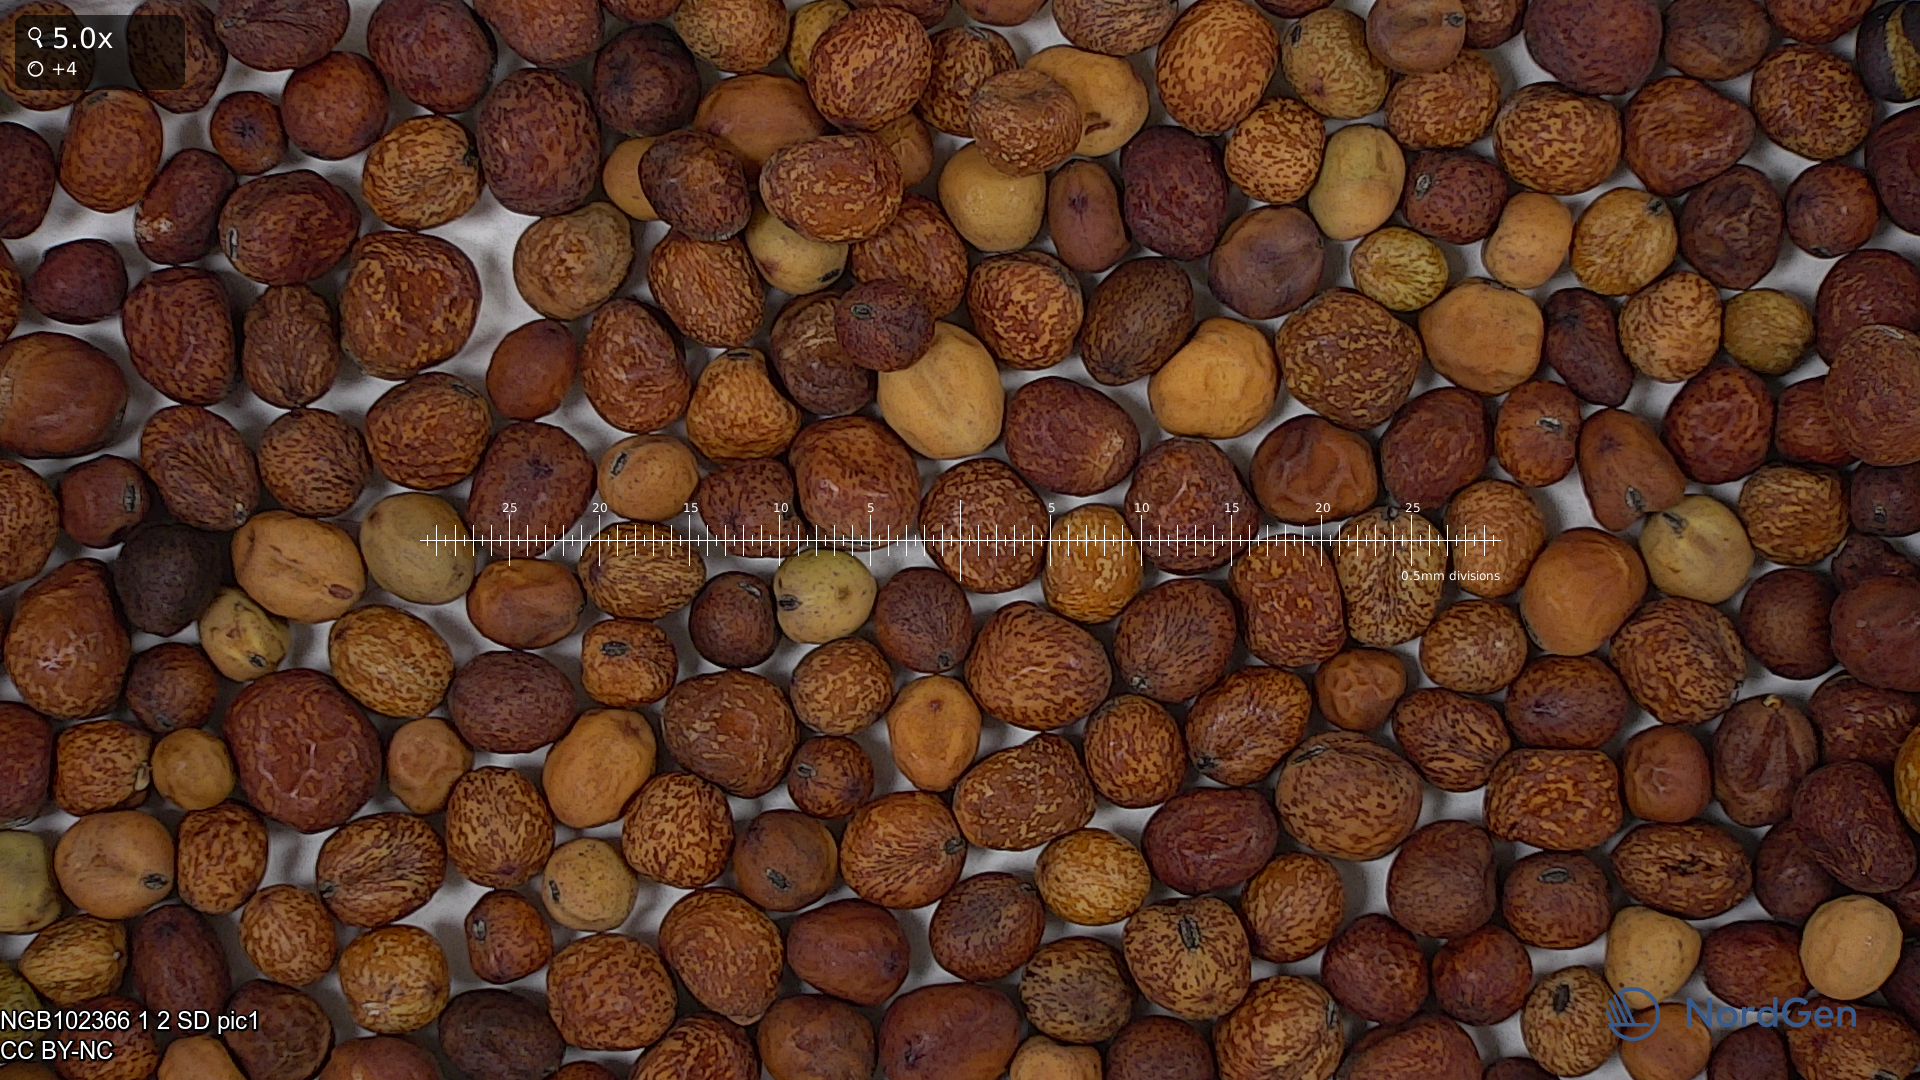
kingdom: Plantae
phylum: Tracheophyta
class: Magnoliopsida
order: Fabales
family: Fabaceae
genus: Lathyrus
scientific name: Lathyrus oleraceus
